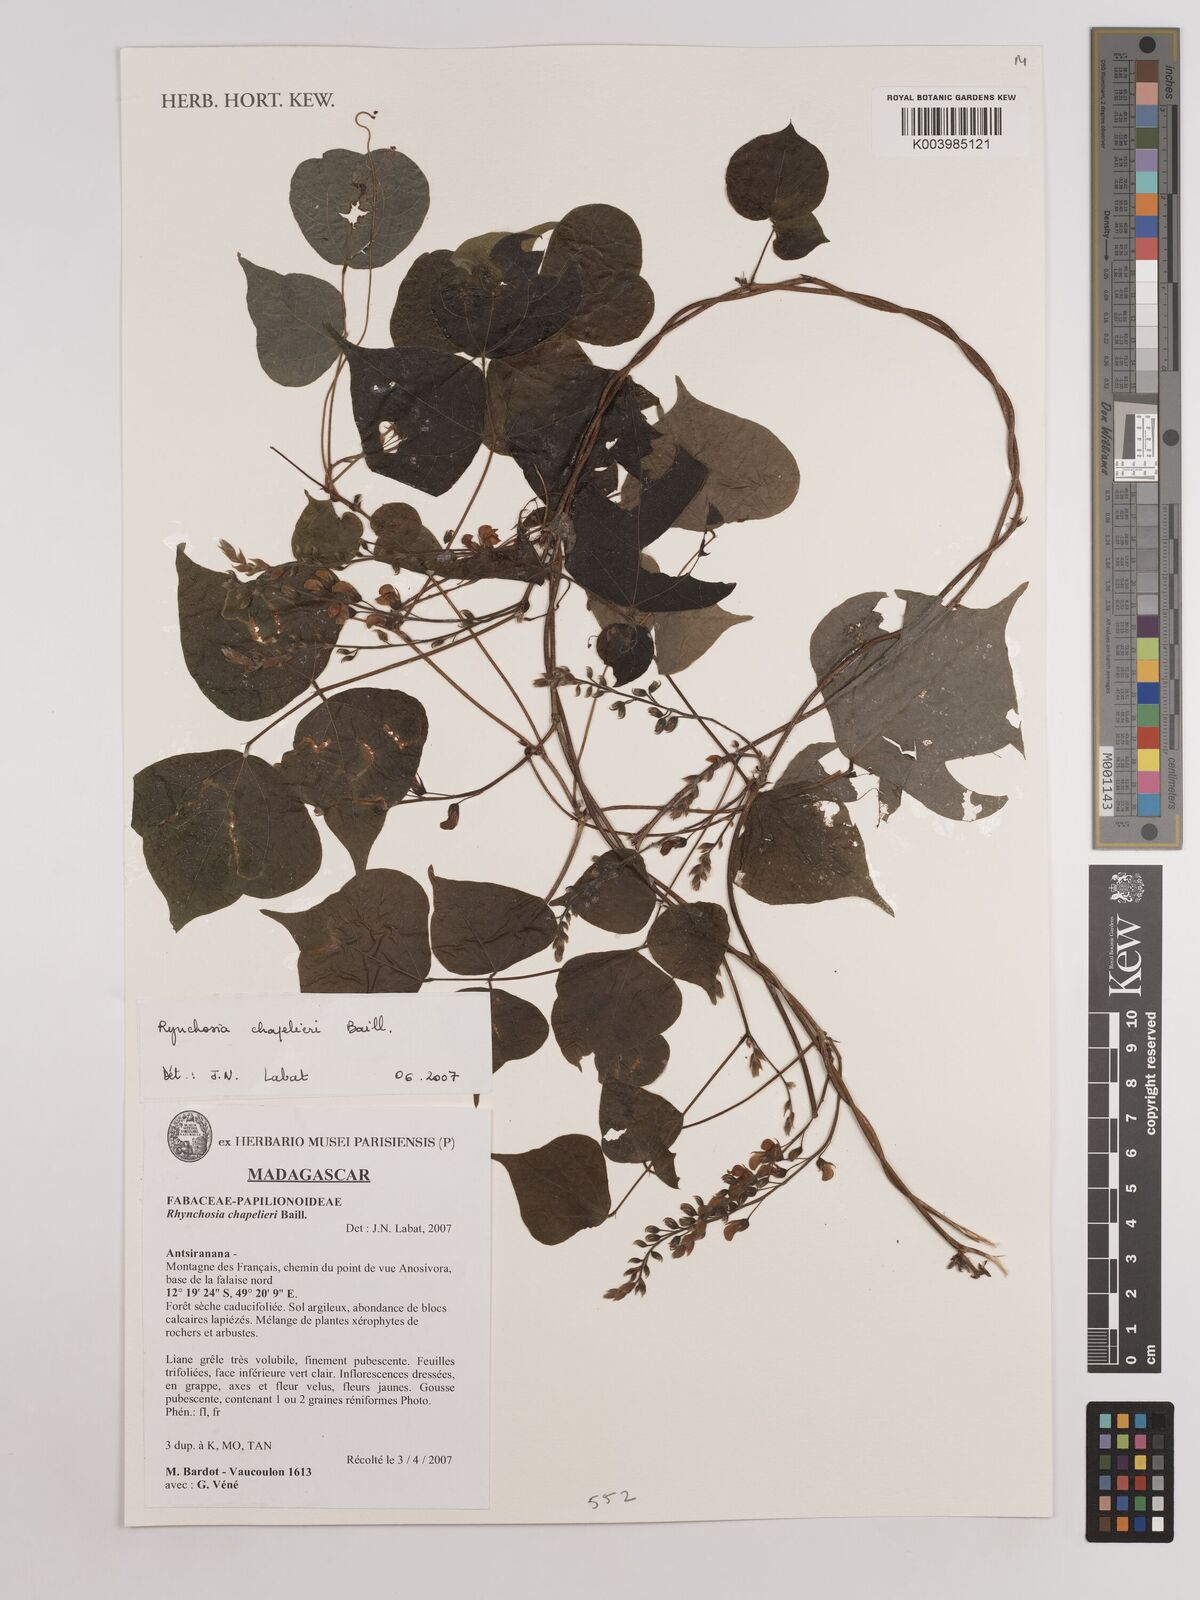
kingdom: Plantae
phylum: Tracheophyta
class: Magnoliopsida
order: Fabales
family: Fabaceae
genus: Rhynchosia
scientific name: Rhynchosia chapelieri
